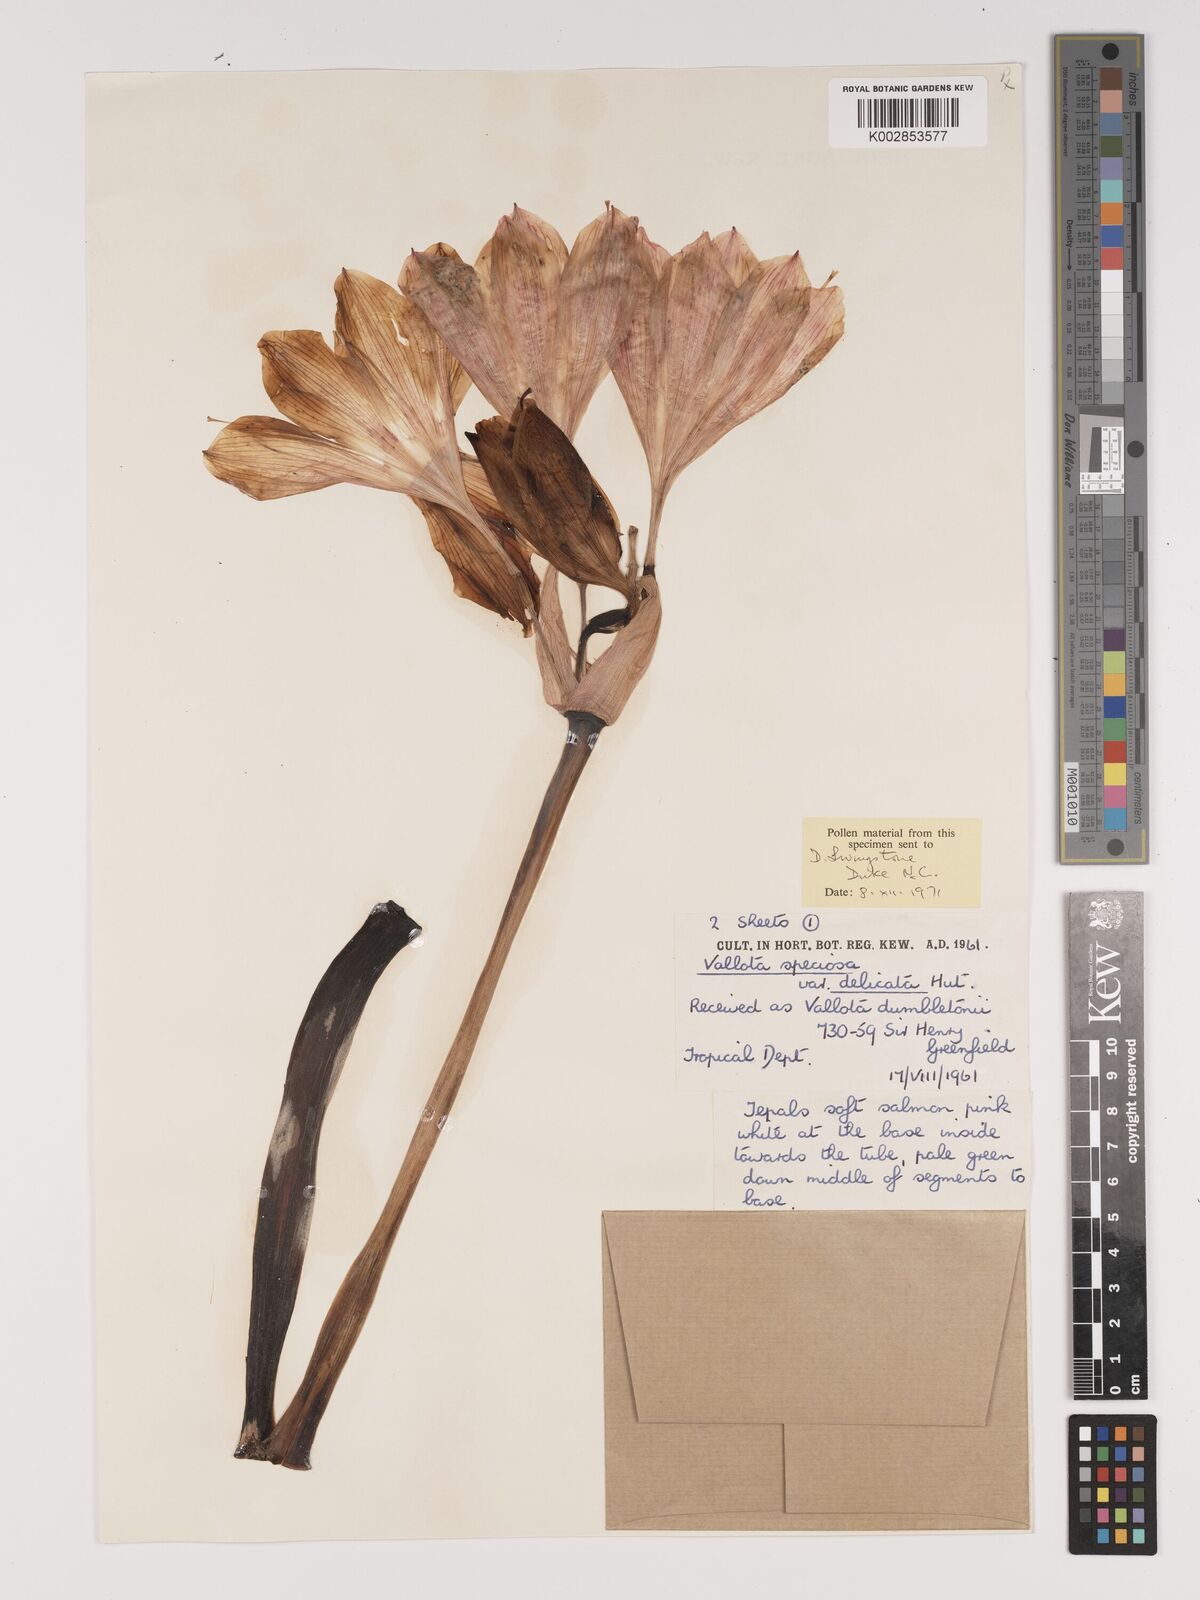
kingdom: Plantae
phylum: Tracheophyta
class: Liliopsida
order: Asparagales
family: Amaryllidaceae
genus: Cyrtanthus
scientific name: Cyrtanthus elatus
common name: Scarborough-lily
